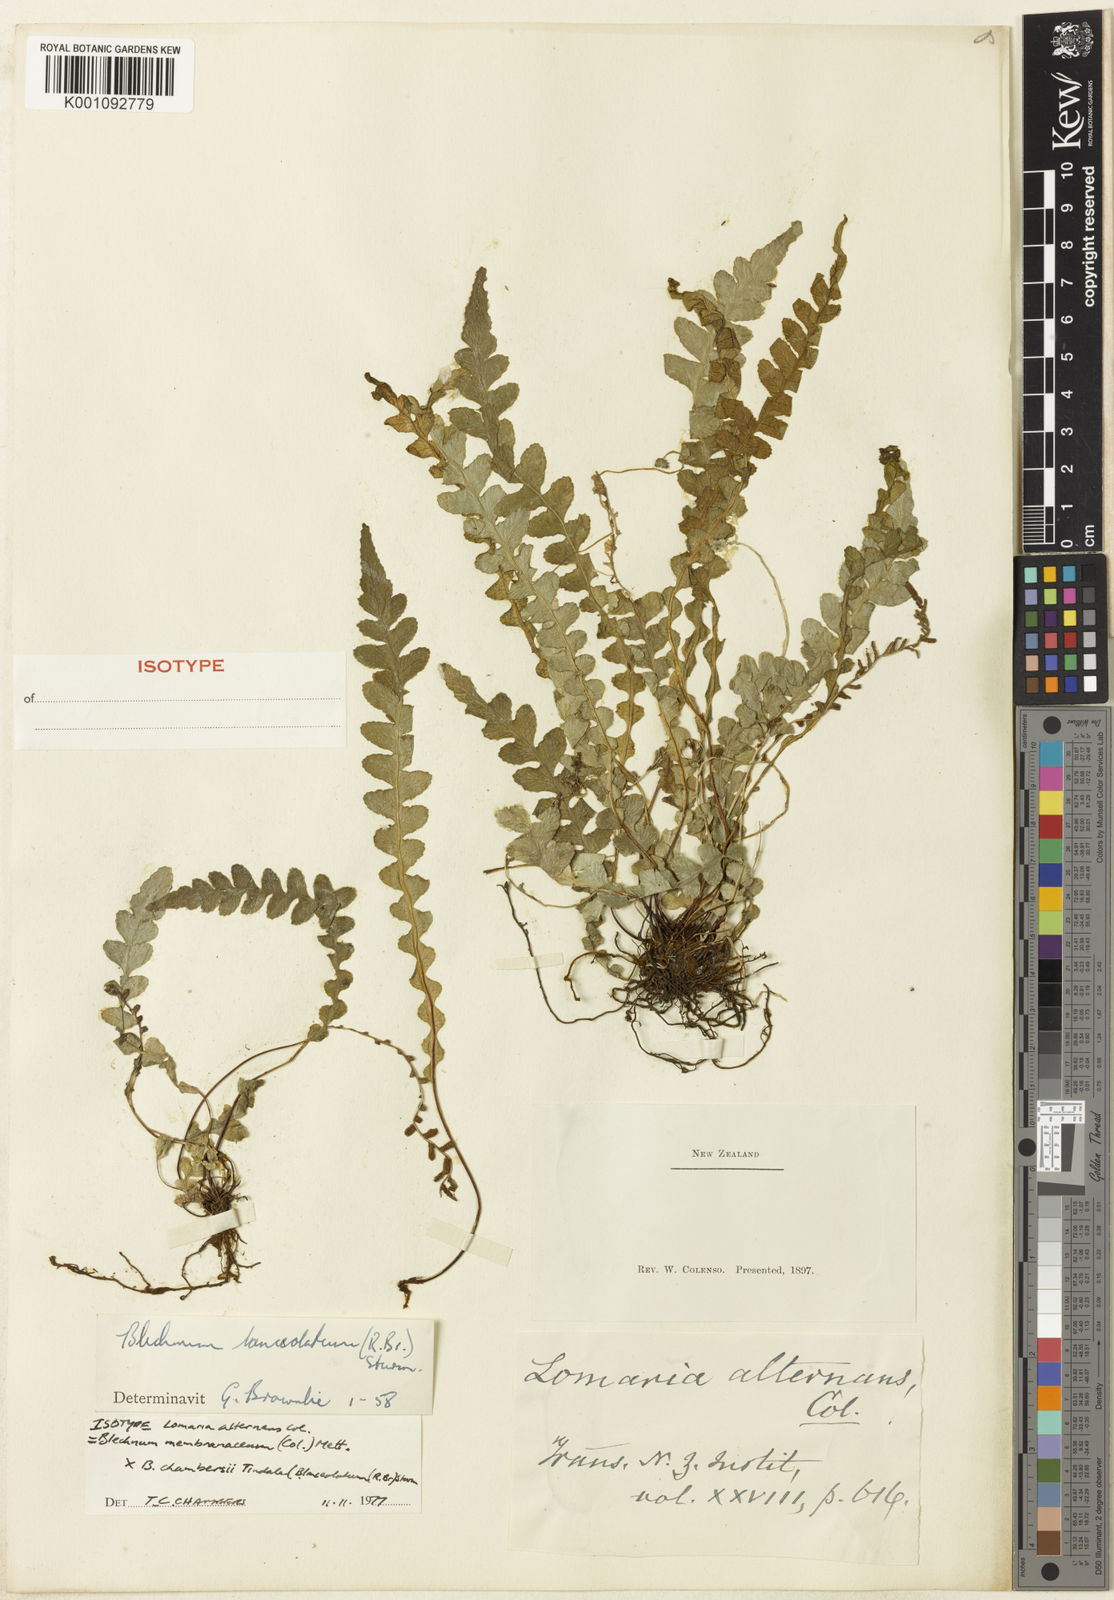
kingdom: Plantae
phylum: Tracheophyta
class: Polypodiopsida
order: Polypodiales
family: Blechnaceae
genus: Austroblechnum
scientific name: Austroblechnum lanceolatum
